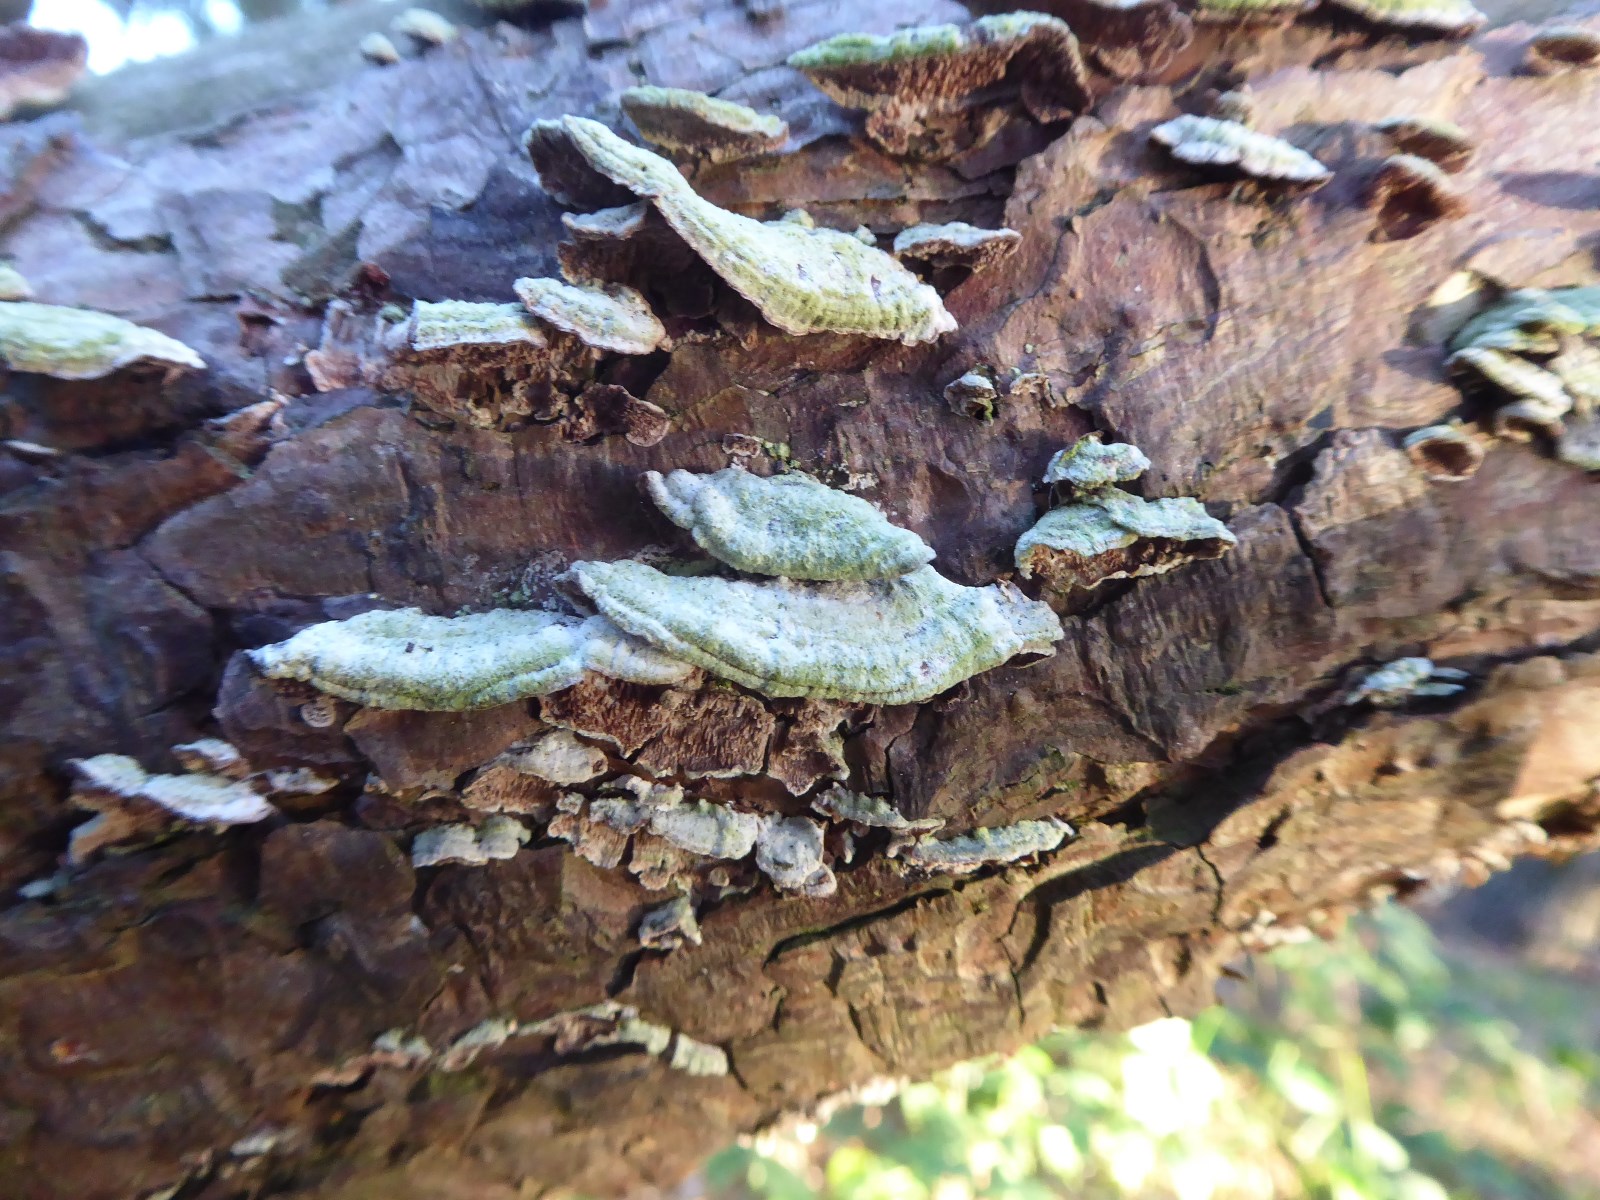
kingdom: Fungi
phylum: Basidiomycota
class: Agaricomycetes
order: Hymenochaetales
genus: Trichaptum
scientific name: Trichaptum abietinum
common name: almindelig violporesvamp
